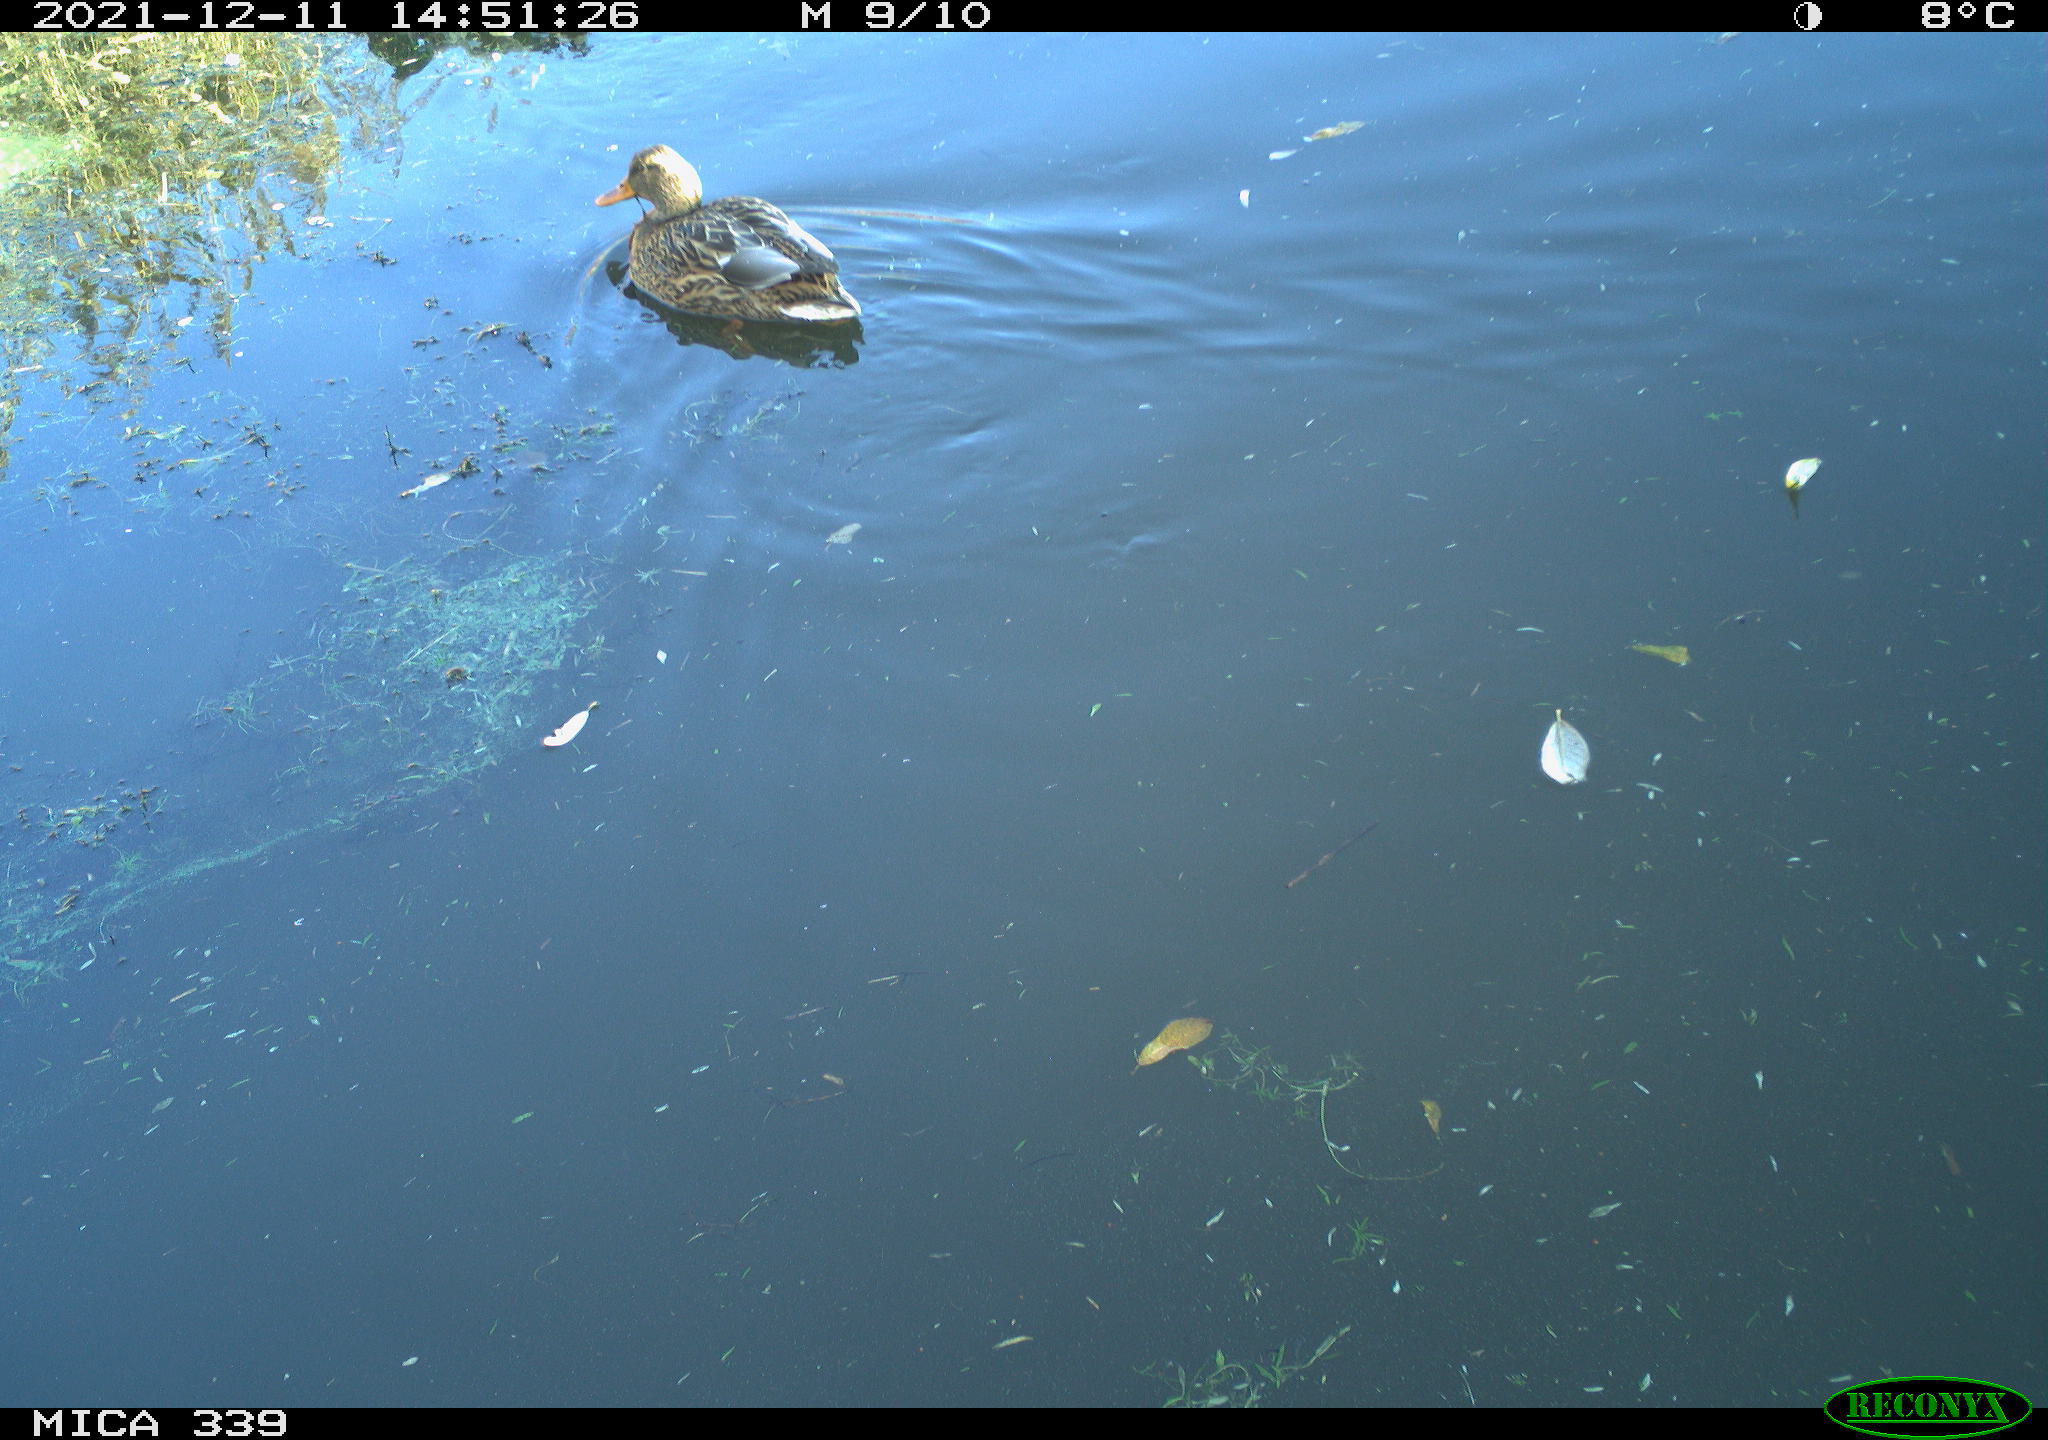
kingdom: Animalia
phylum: Chordata
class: Aves
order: Anseriformes
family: Anatidae
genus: Anas
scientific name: Anas platyrhynchos
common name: Mallard
